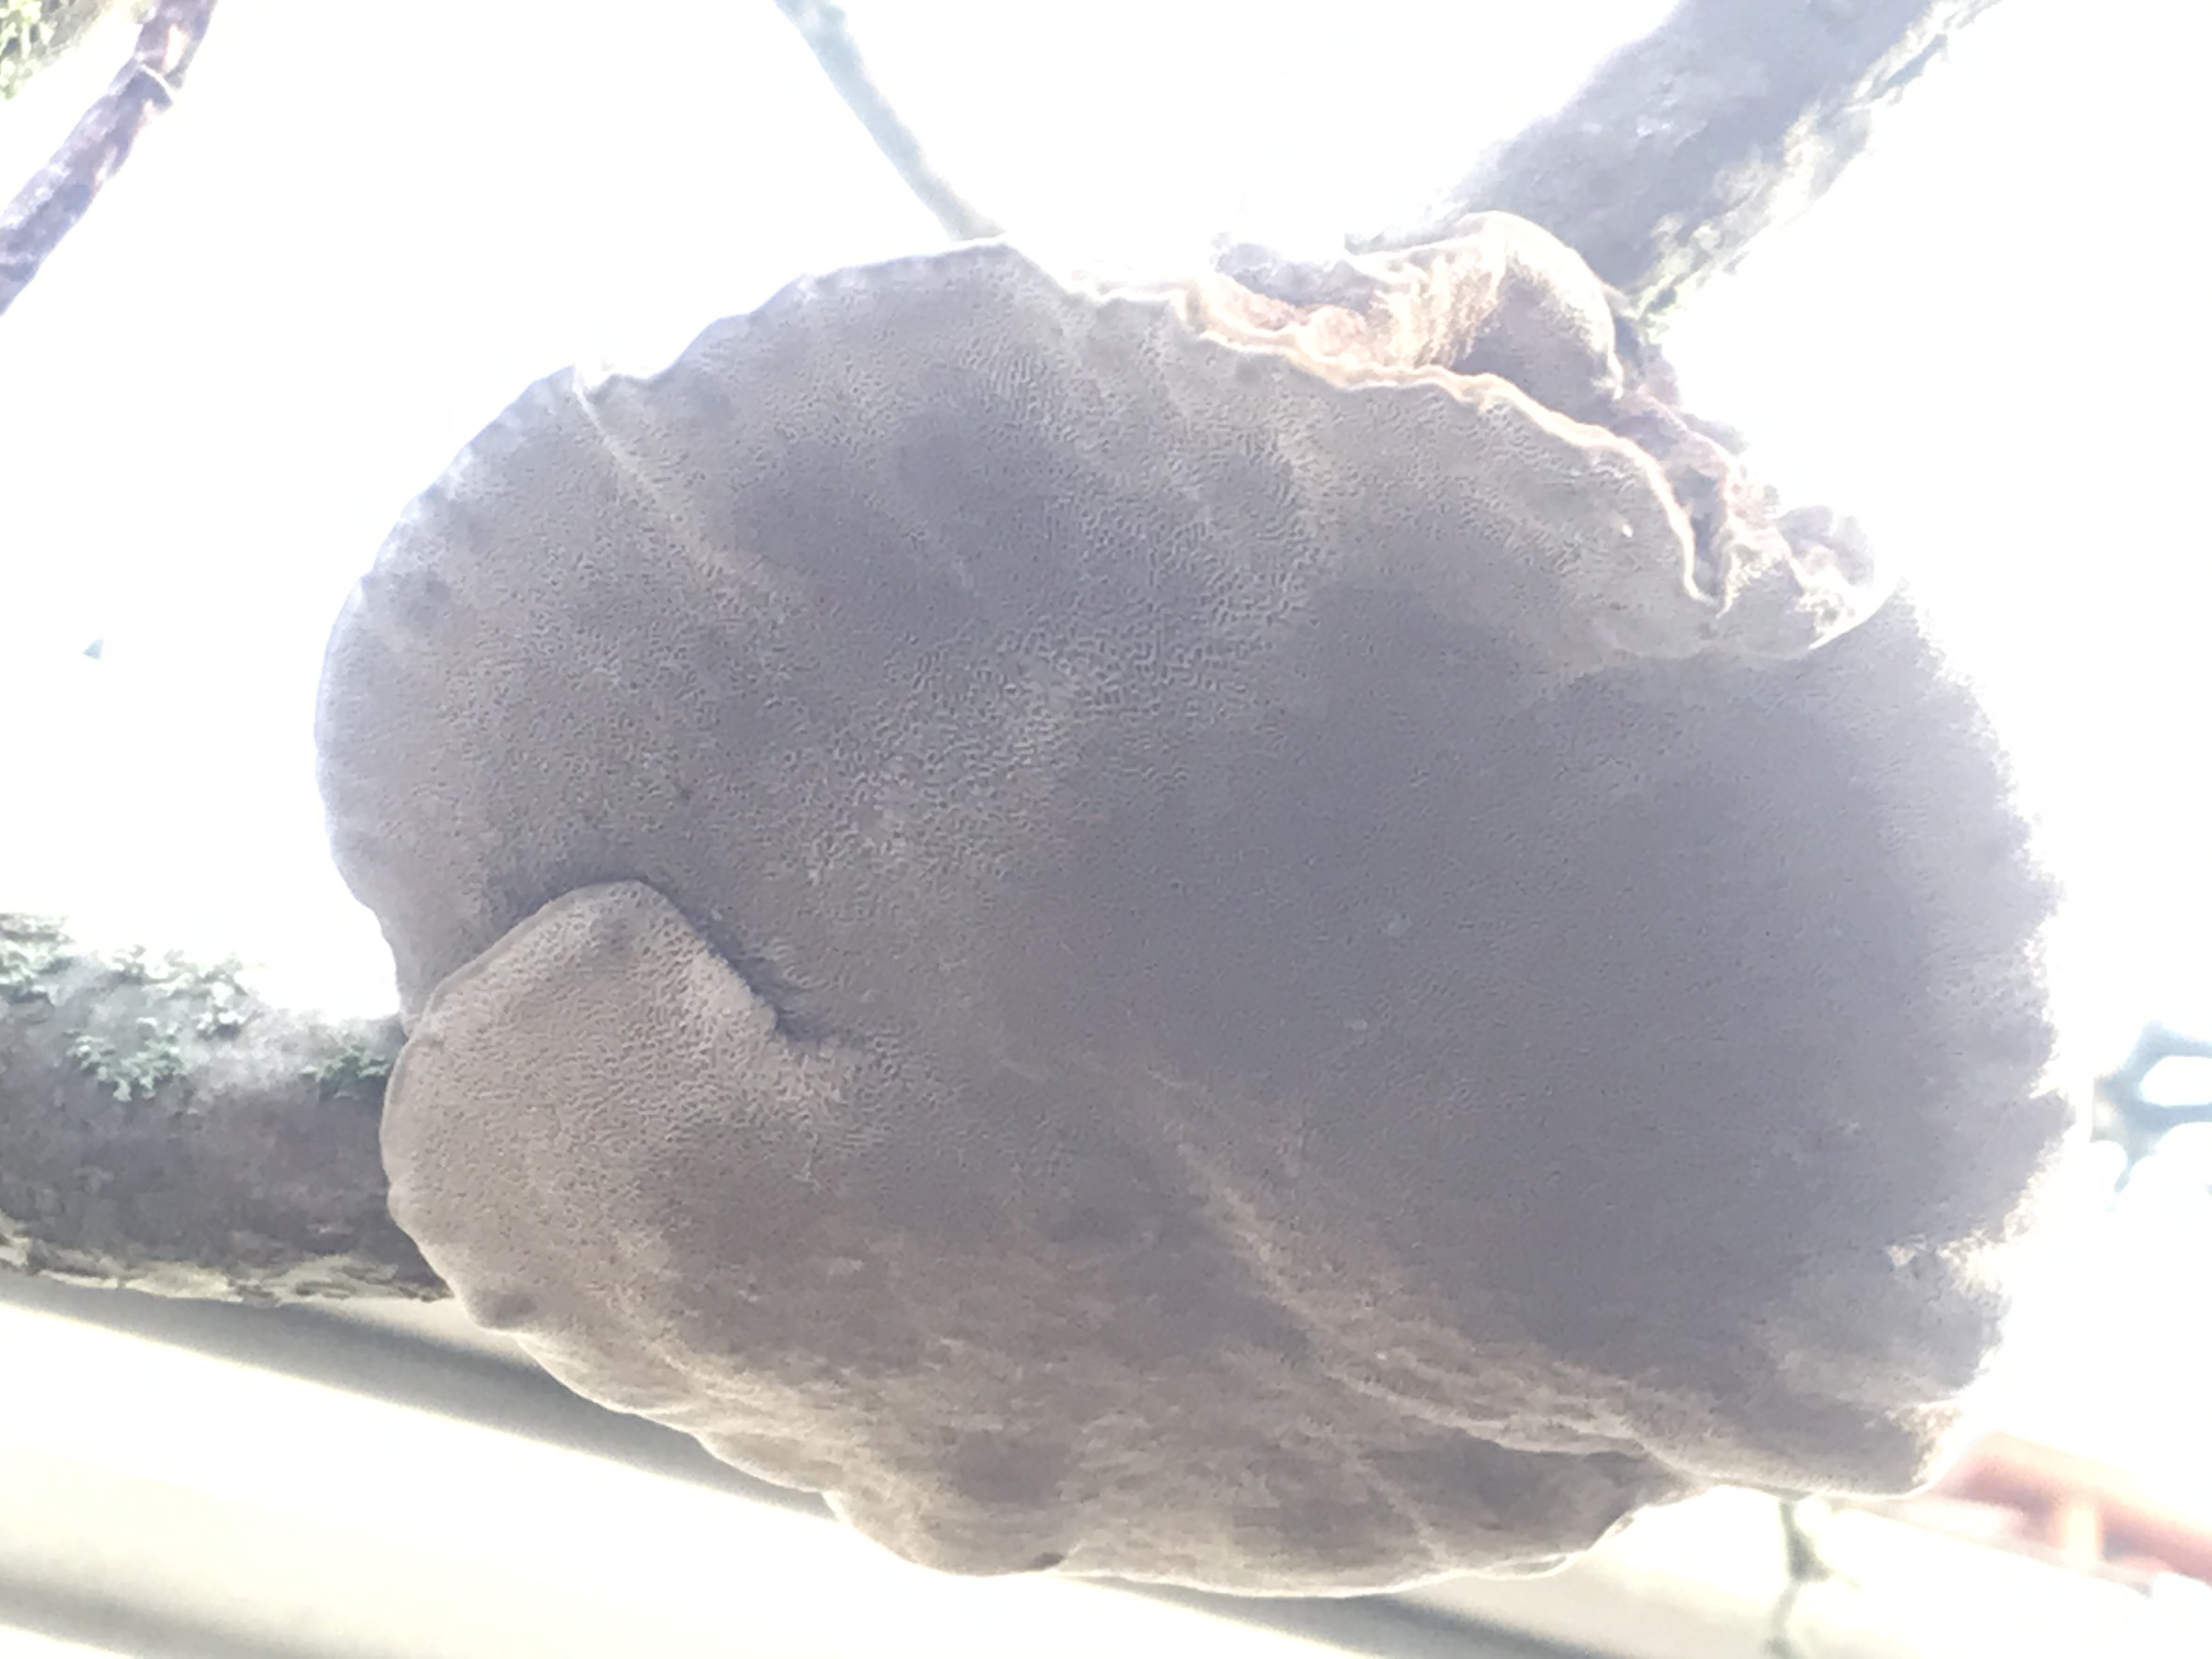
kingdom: Fungi
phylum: Basidiomycota
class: Agaricomycetes
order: Polyporales
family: Polyporaceae
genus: Daedaleopsis
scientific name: Daedaleopsis confragosa
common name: rødmende læderporesvamp
